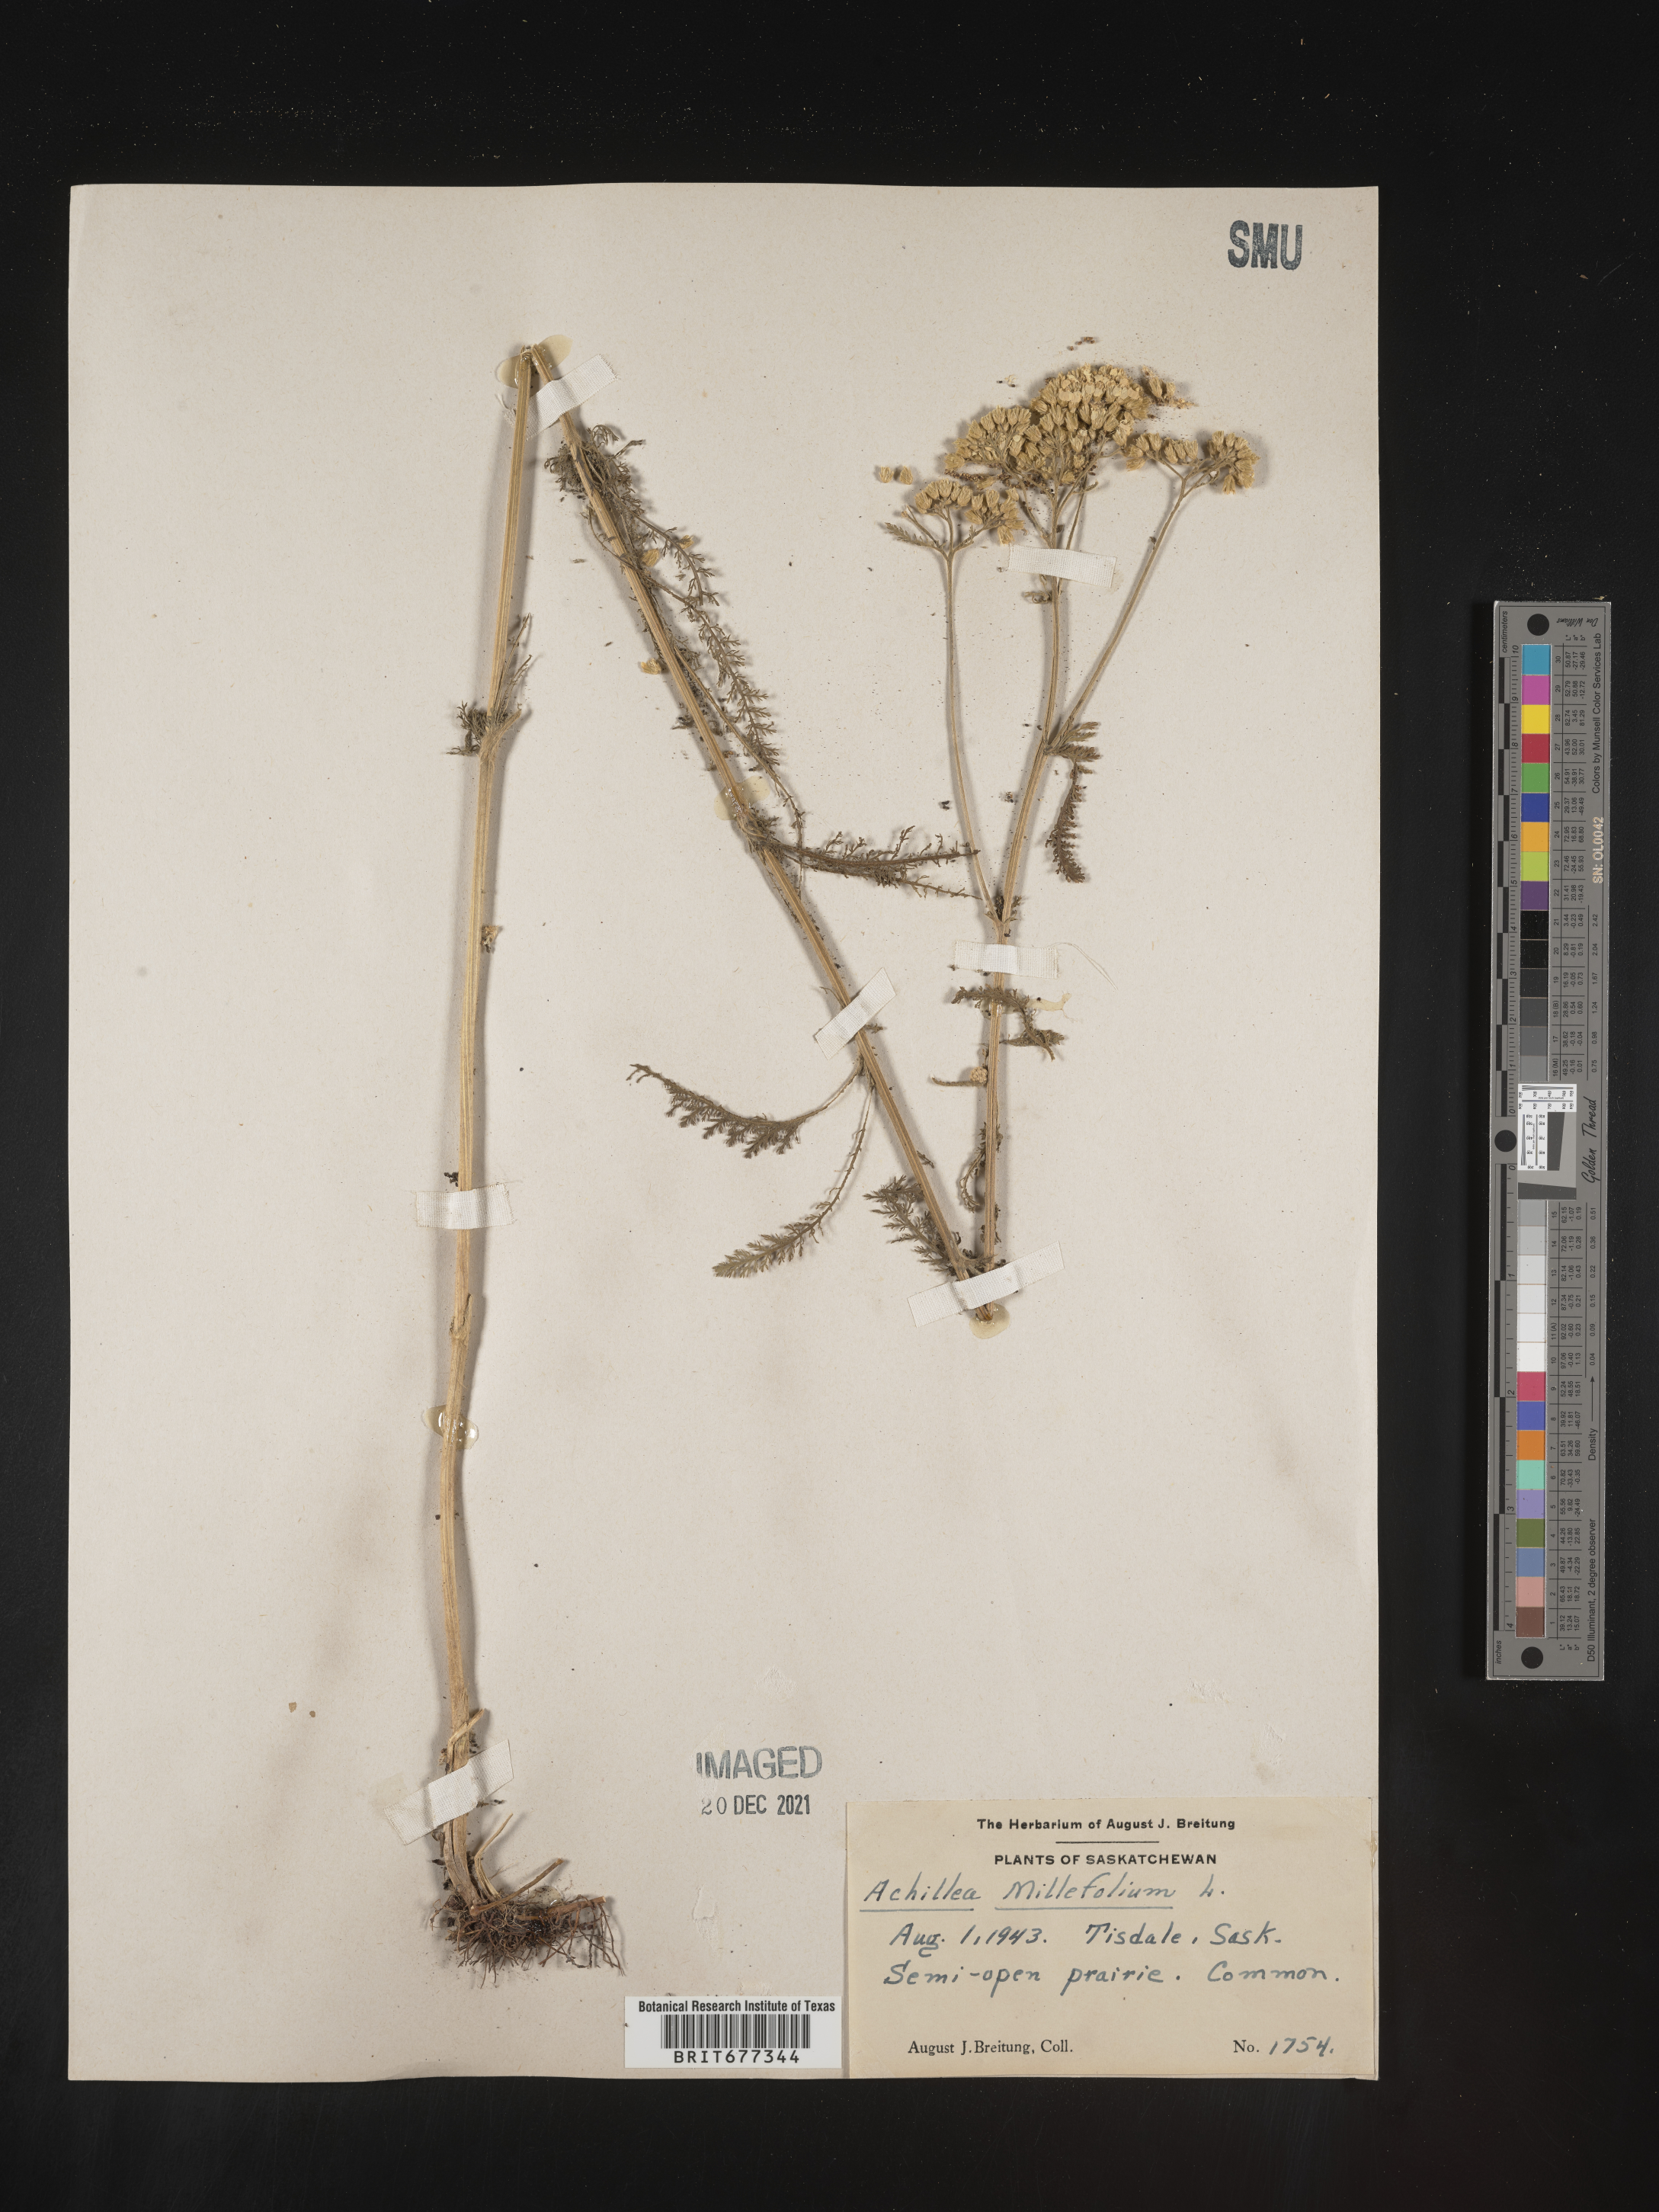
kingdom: Plantae
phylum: Tracheophyta
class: Magnoliopsida
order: Asterales
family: Asteraceae
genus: Achillea
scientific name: Achillea millefolium
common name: Yarrow
